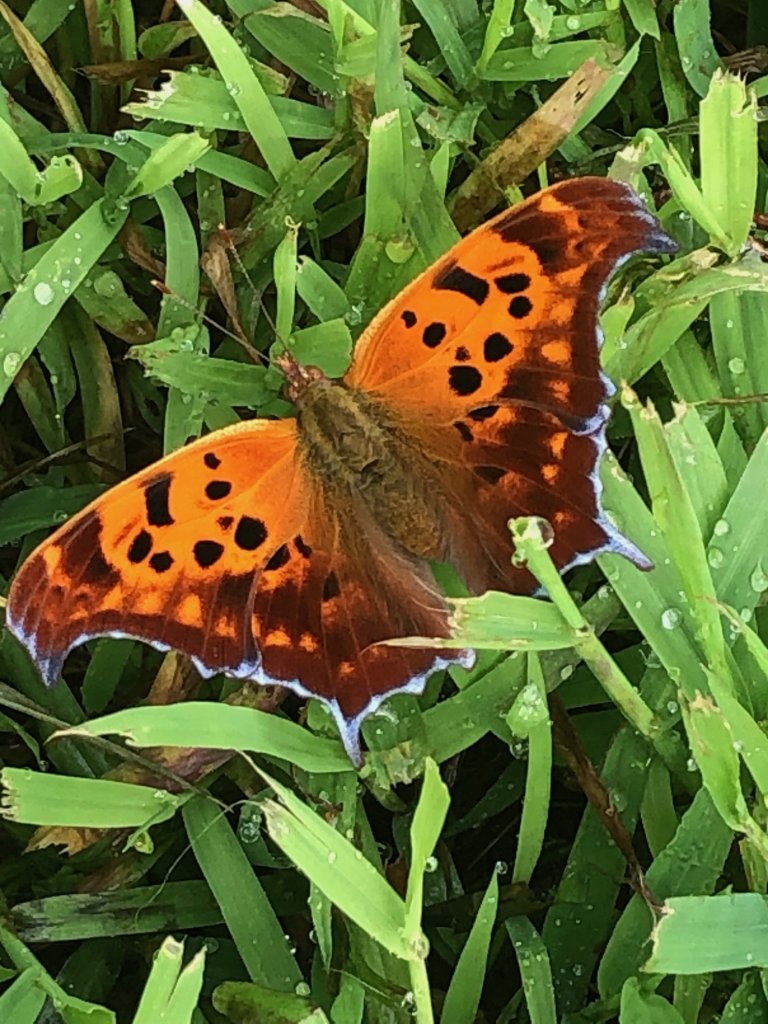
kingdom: Animalia
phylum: Arthropoda
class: Insecta
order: Lepidoptera
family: Nymphalidae
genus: Polygonia
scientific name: Polygonia interrogationis
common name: Question Mark
